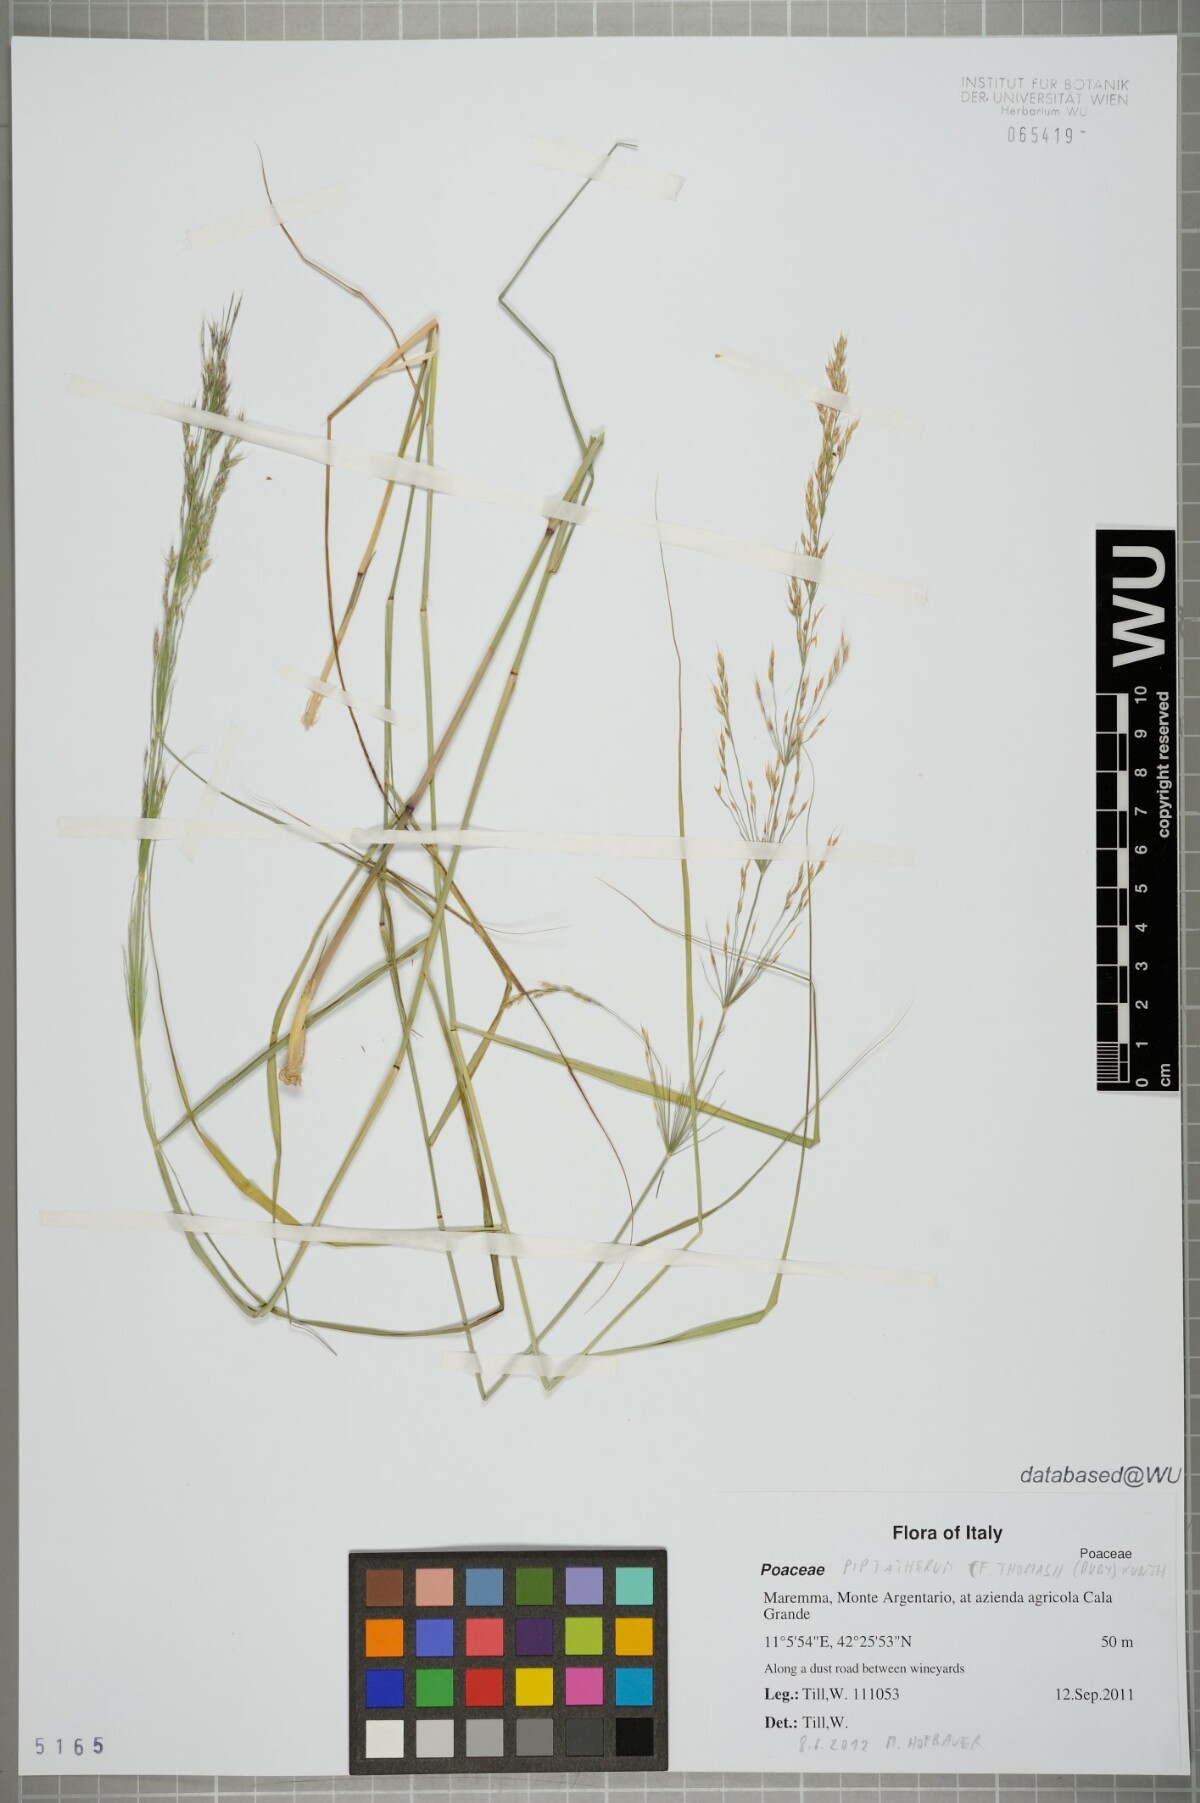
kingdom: Plantae
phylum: Tracheophyta
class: Liliopsida
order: Poales
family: Poaceae
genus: Oloptum
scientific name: Oloptum thomasii
